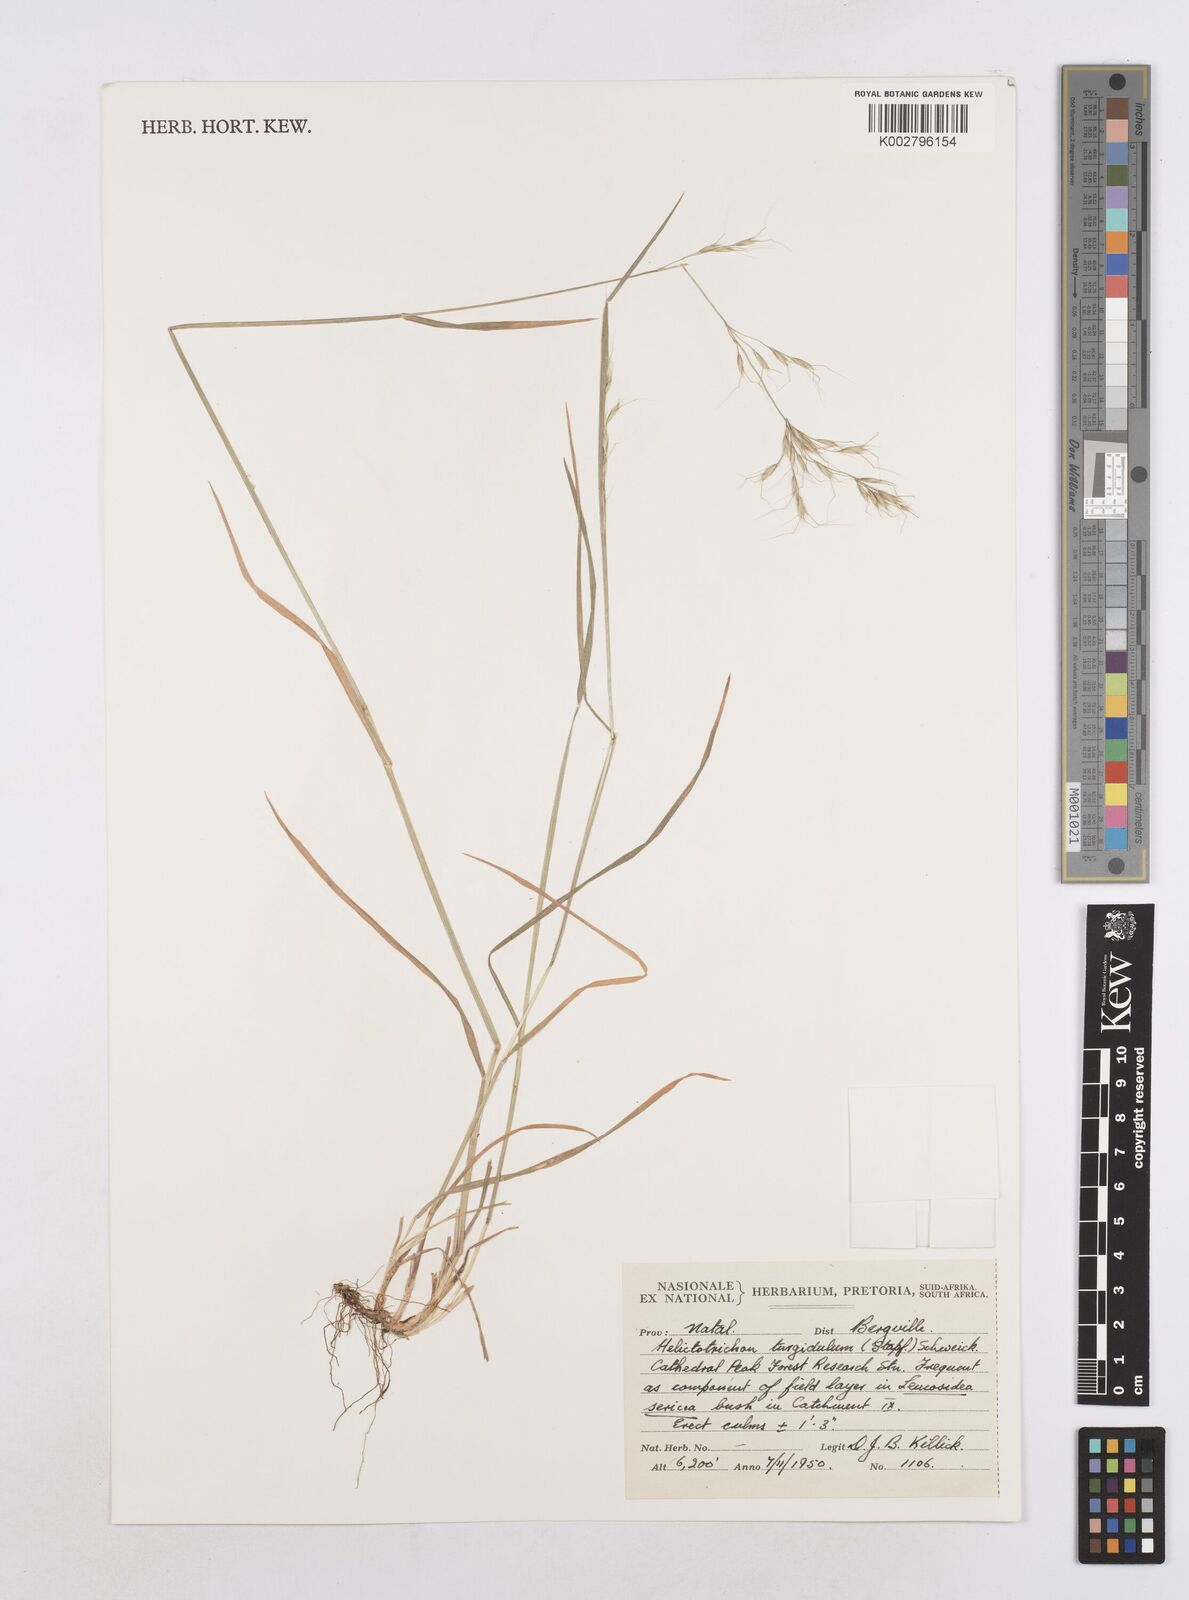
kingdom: Plantae
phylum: Tracheophyta
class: Liliopsida
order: Poales
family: Poaceae
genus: Trisetopsis
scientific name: Trisetopsis imberbis
